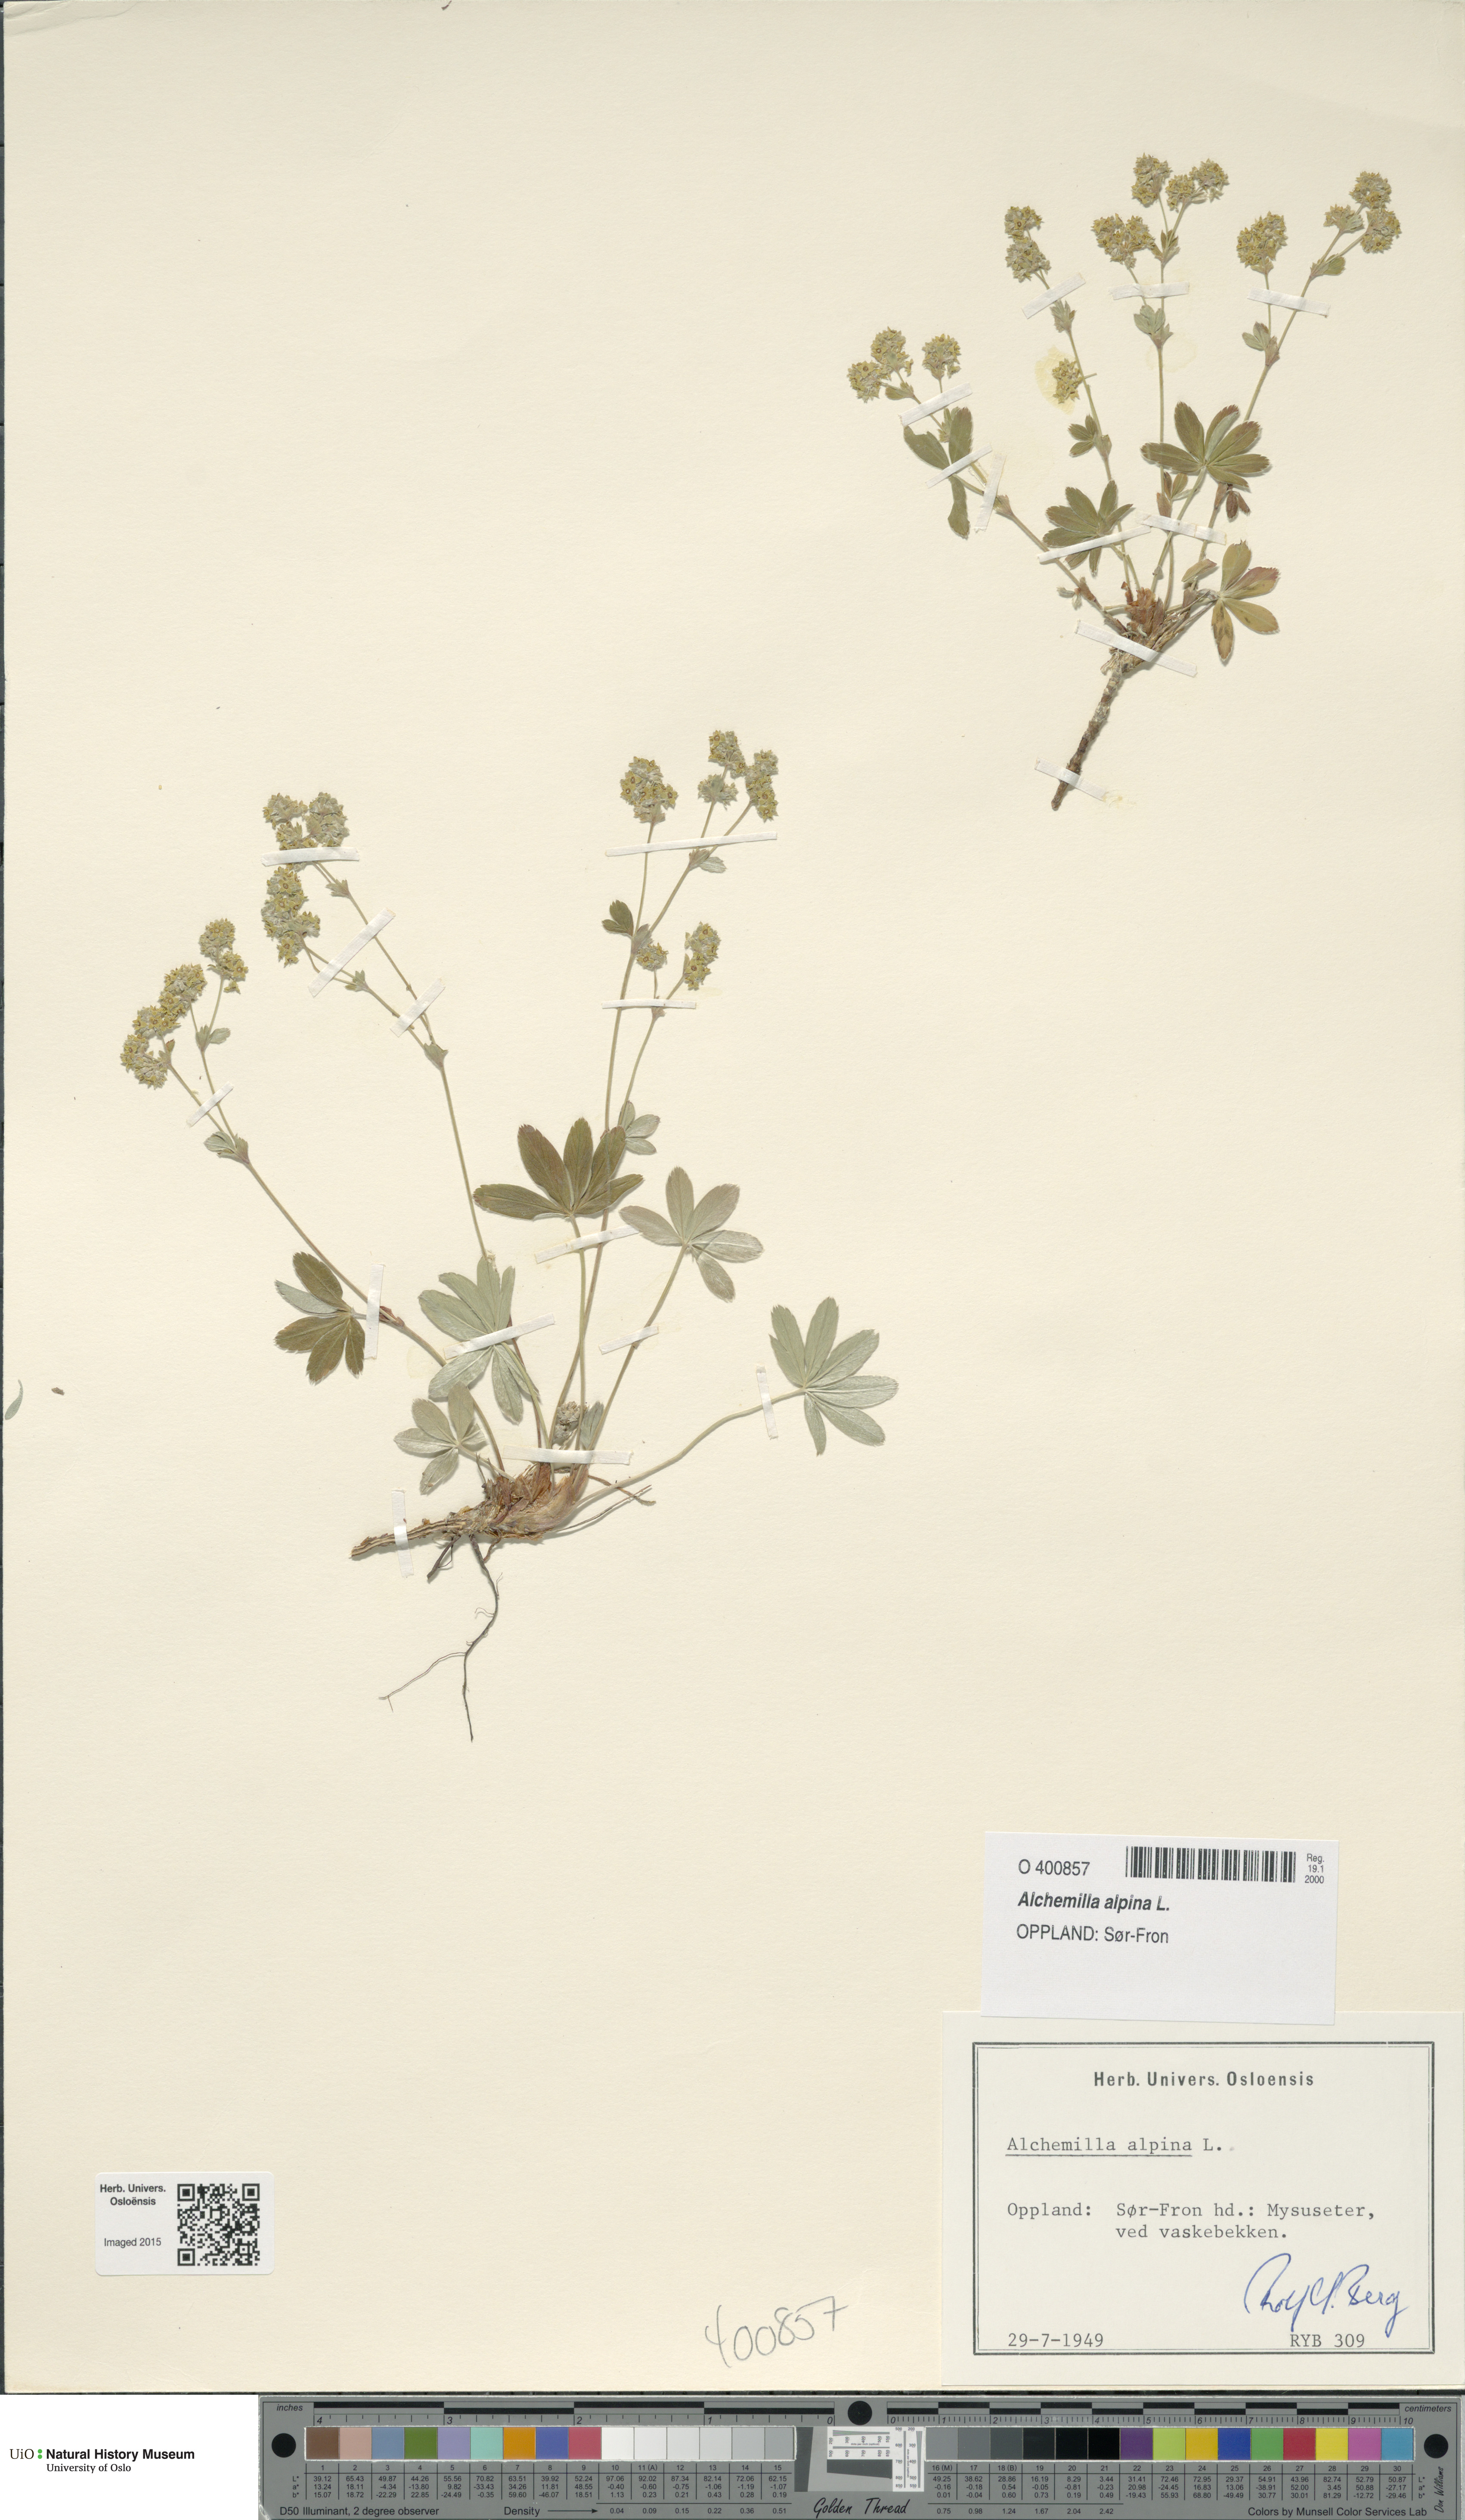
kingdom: Plantae
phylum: Tracheophyta
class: Magnoliopsida
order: Rosales
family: Rosaceae
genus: Alchemilla
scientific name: Alchemilla alpina
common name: Alpine lady's-mantle
